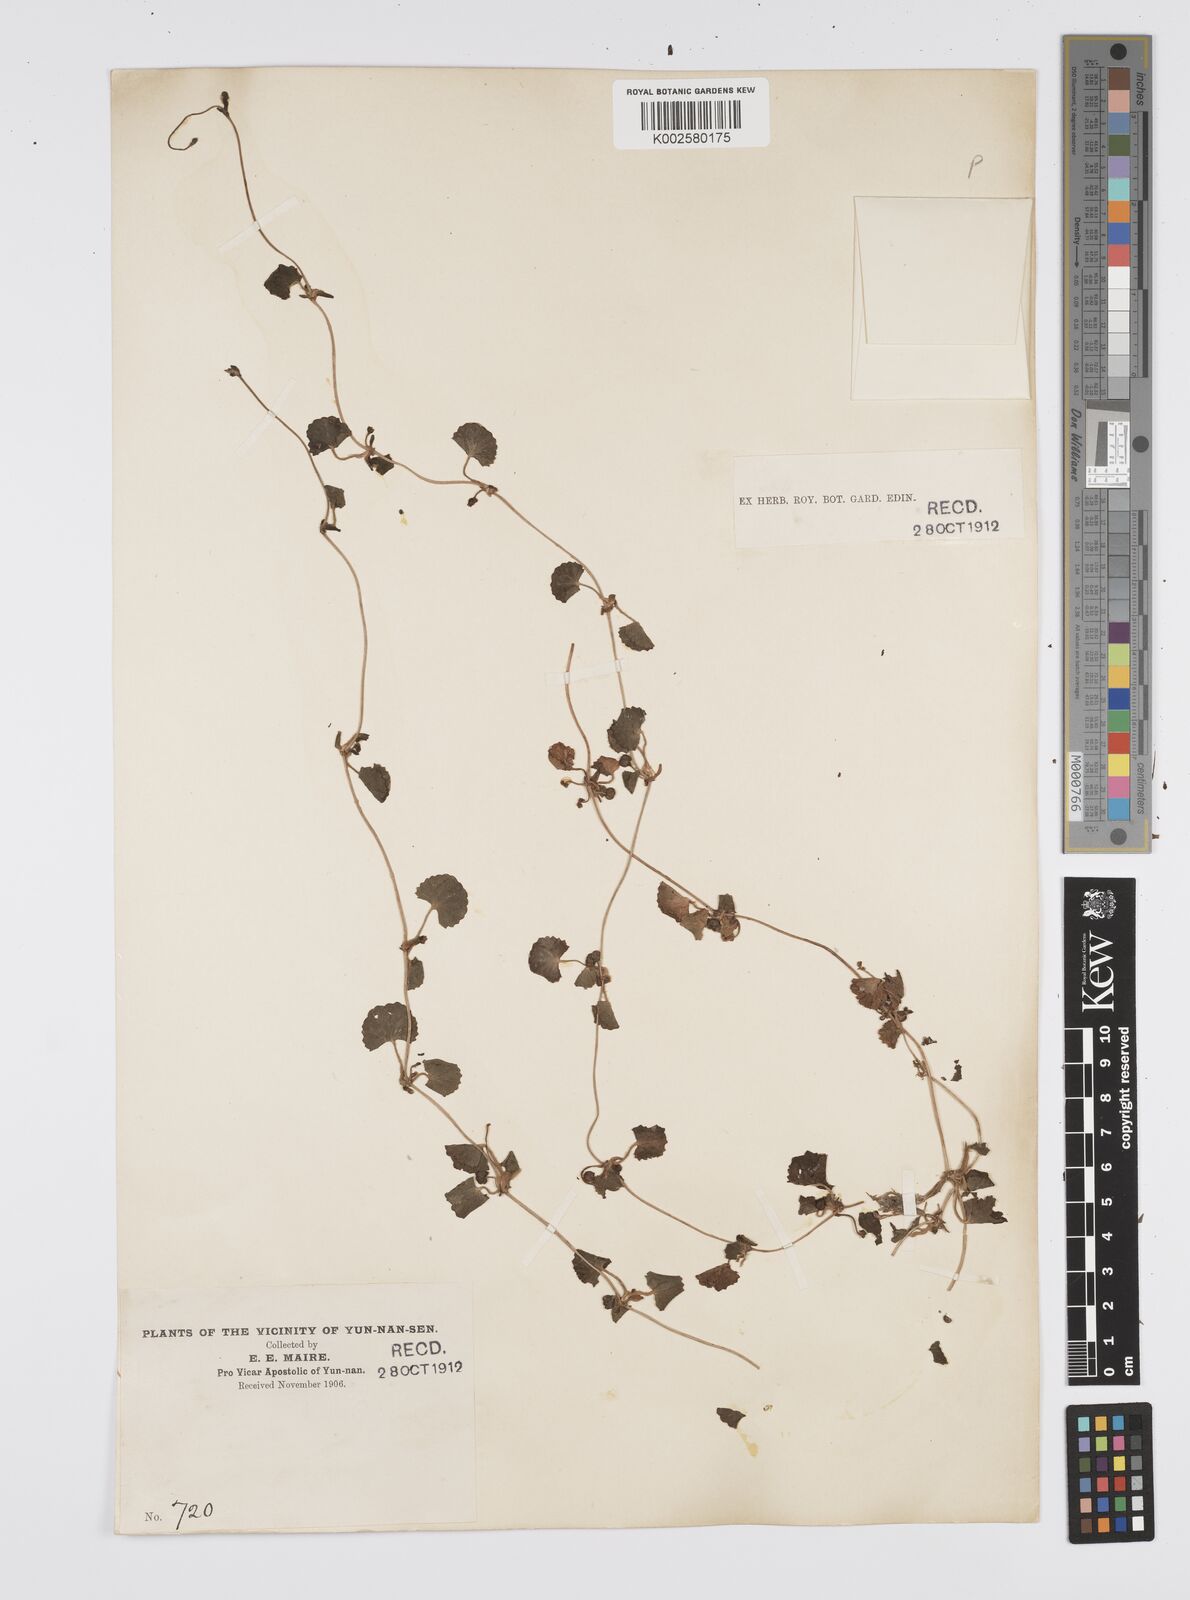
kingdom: Plantae
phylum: Tracheophyta
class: Magnoliopsida
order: Apiales
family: Apiaceae
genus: Centella
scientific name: Centella asiatica
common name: Spadeleaf
